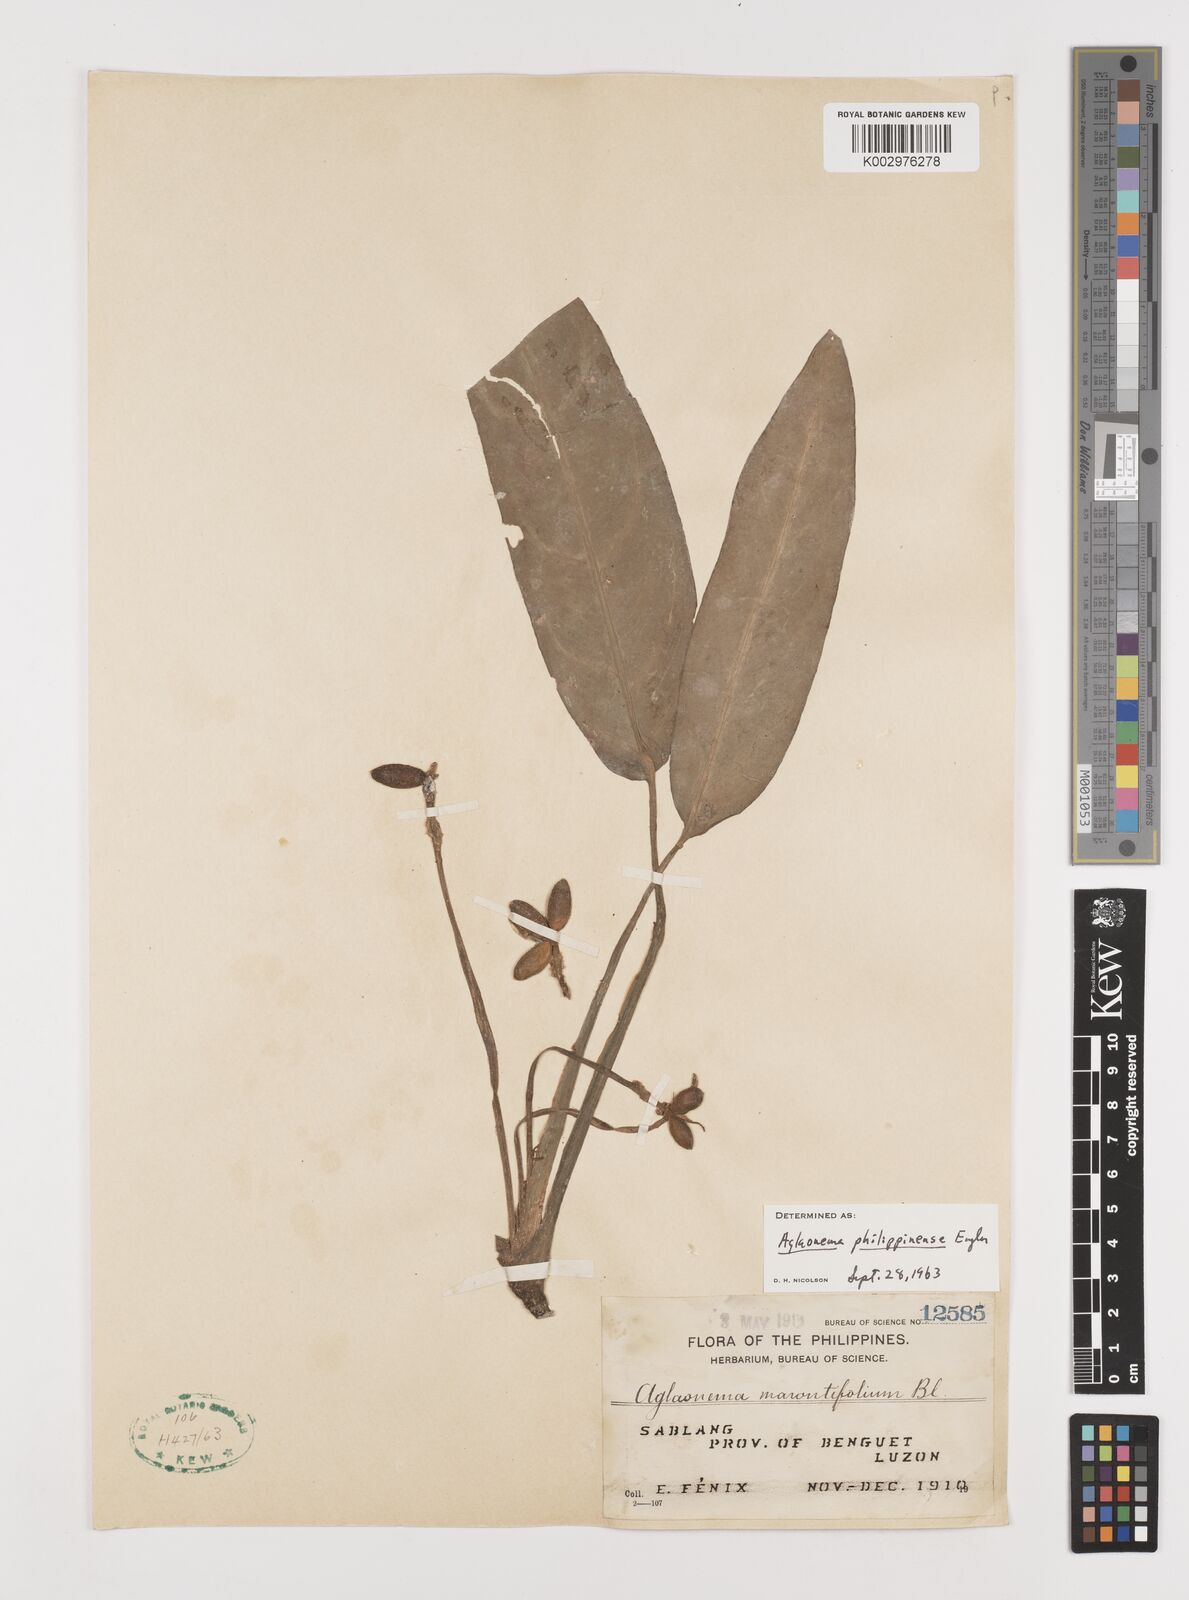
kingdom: Plantae
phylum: Tracheophyta
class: Liliopsida
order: Alismatales
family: Araceae
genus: Aglaonema
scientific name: Aglaonema philippinense
